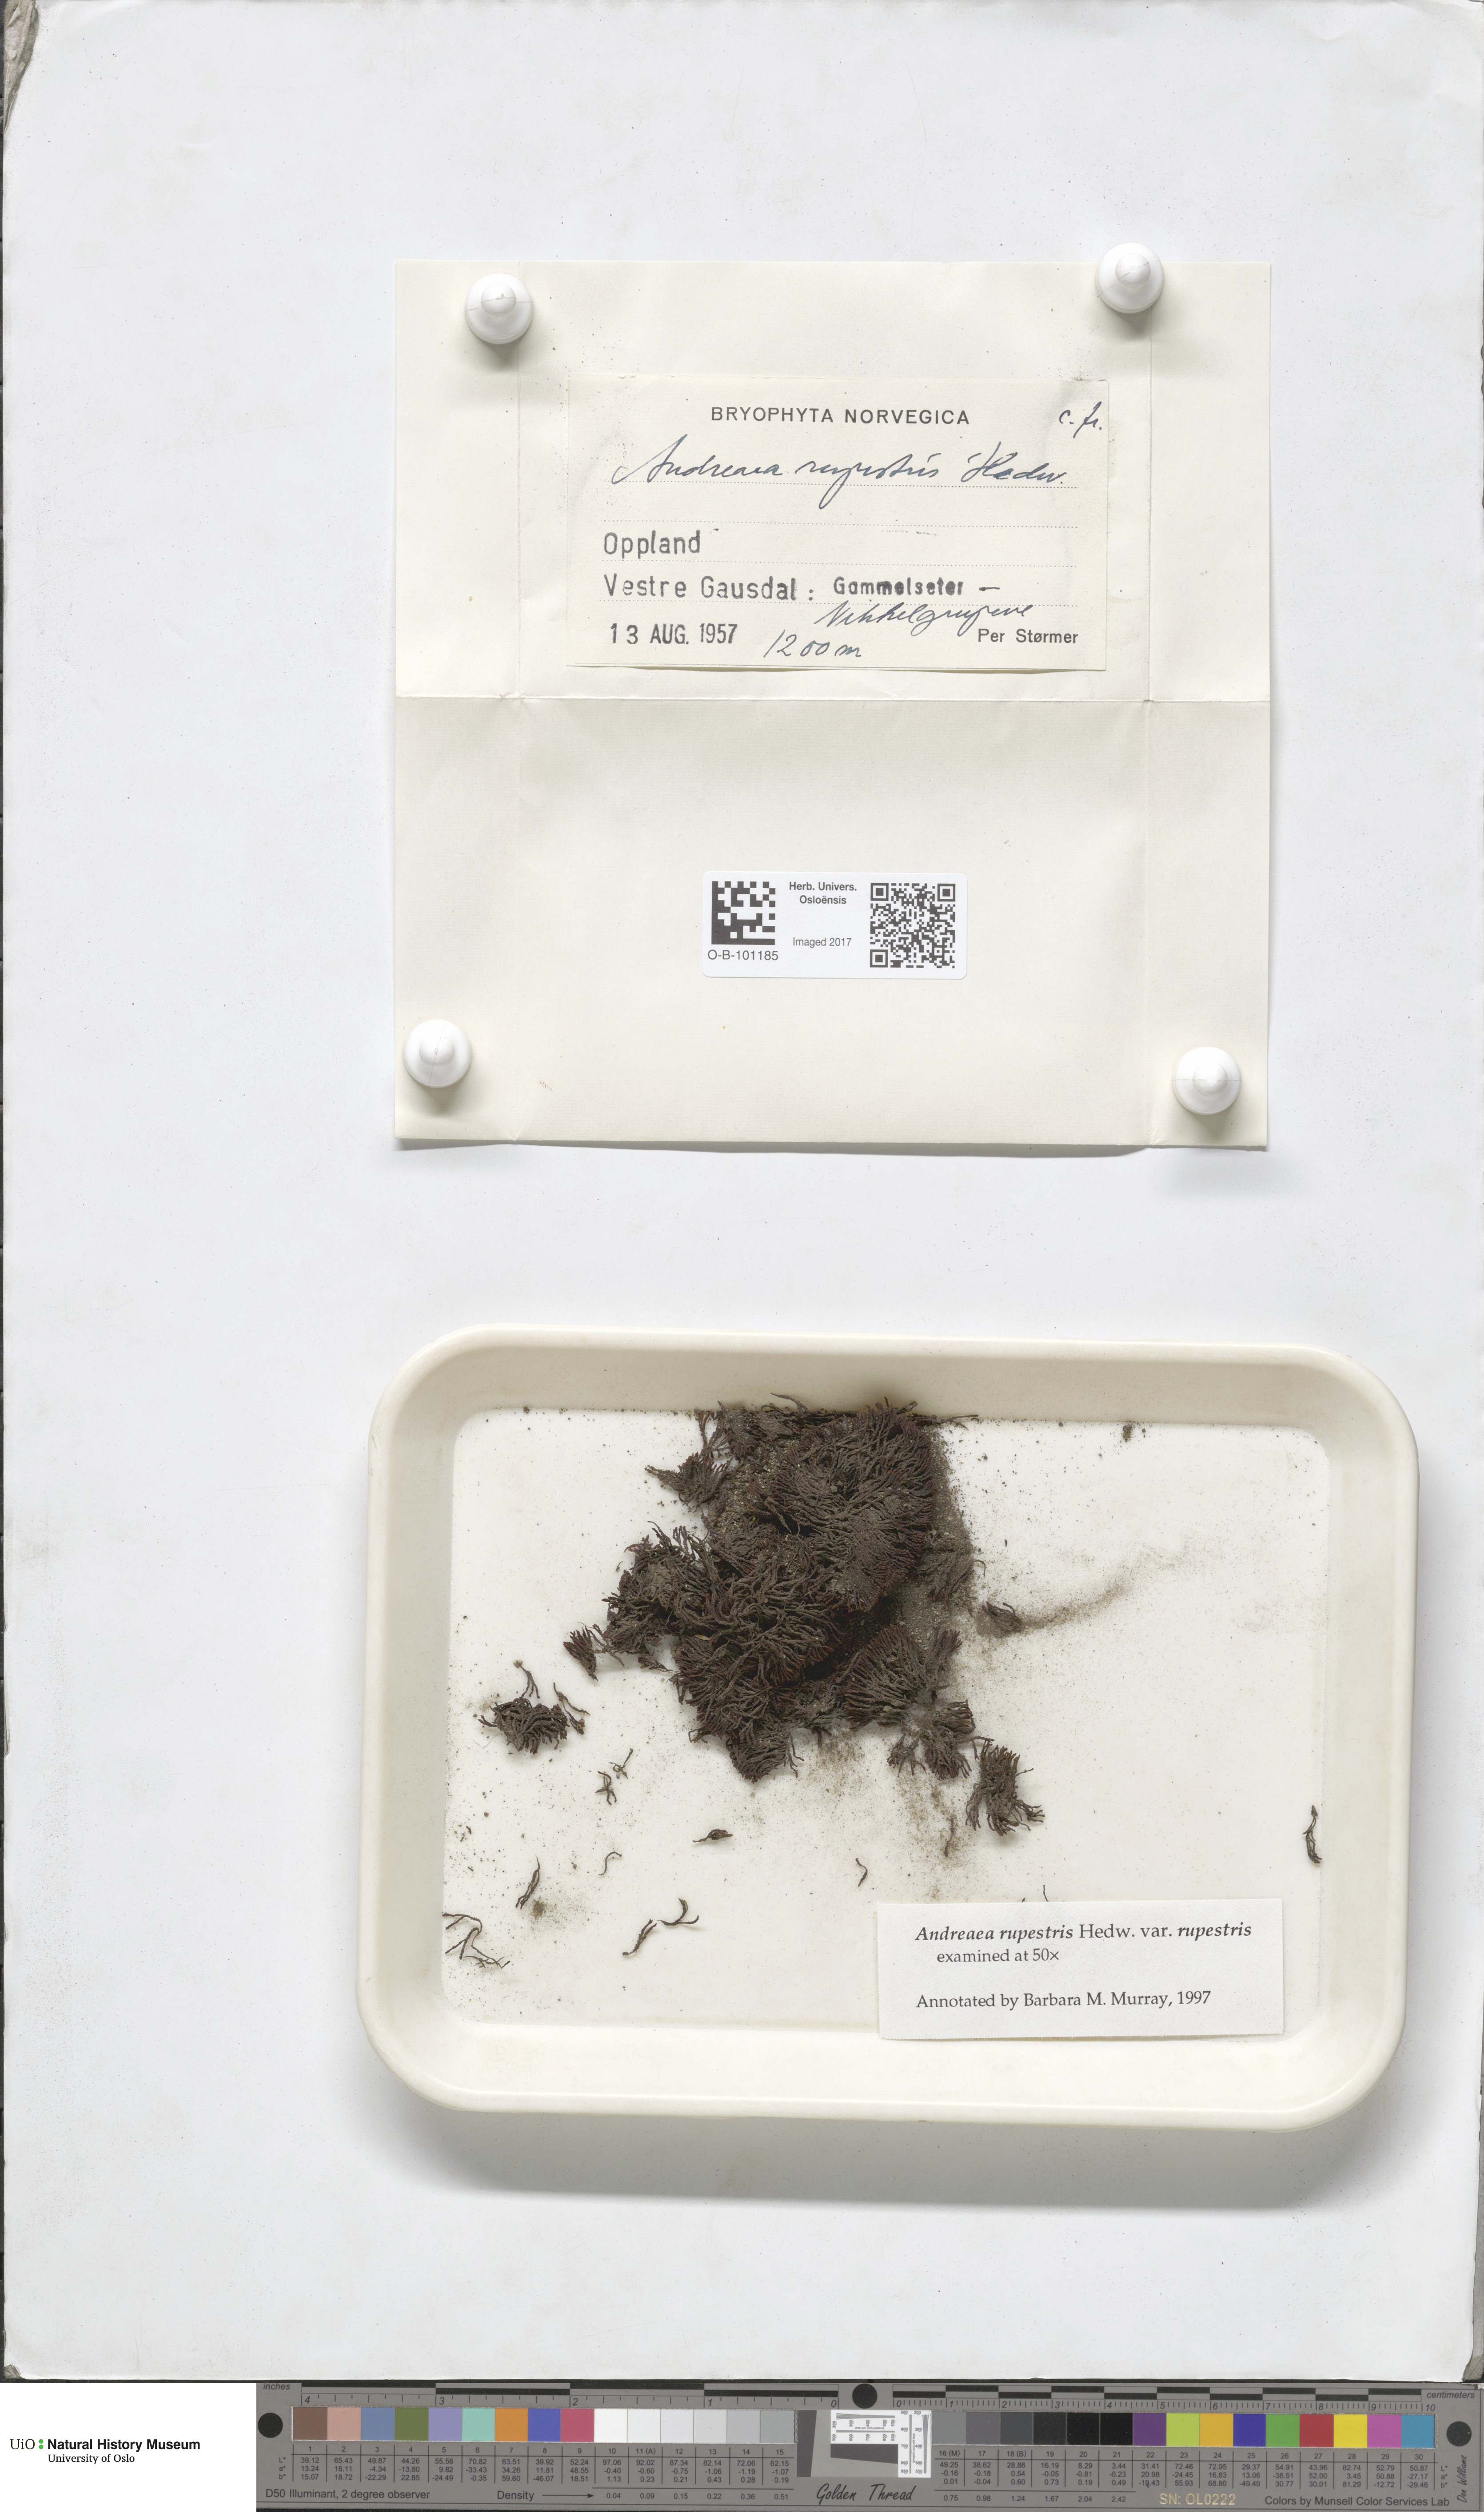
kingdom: Plantae
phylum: Bryophyta
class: Andreaeopsida
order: Andreaeales
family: Andreaeaceae
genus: Andreaea
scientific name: Andreaea rupestris
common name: Black rock moss
